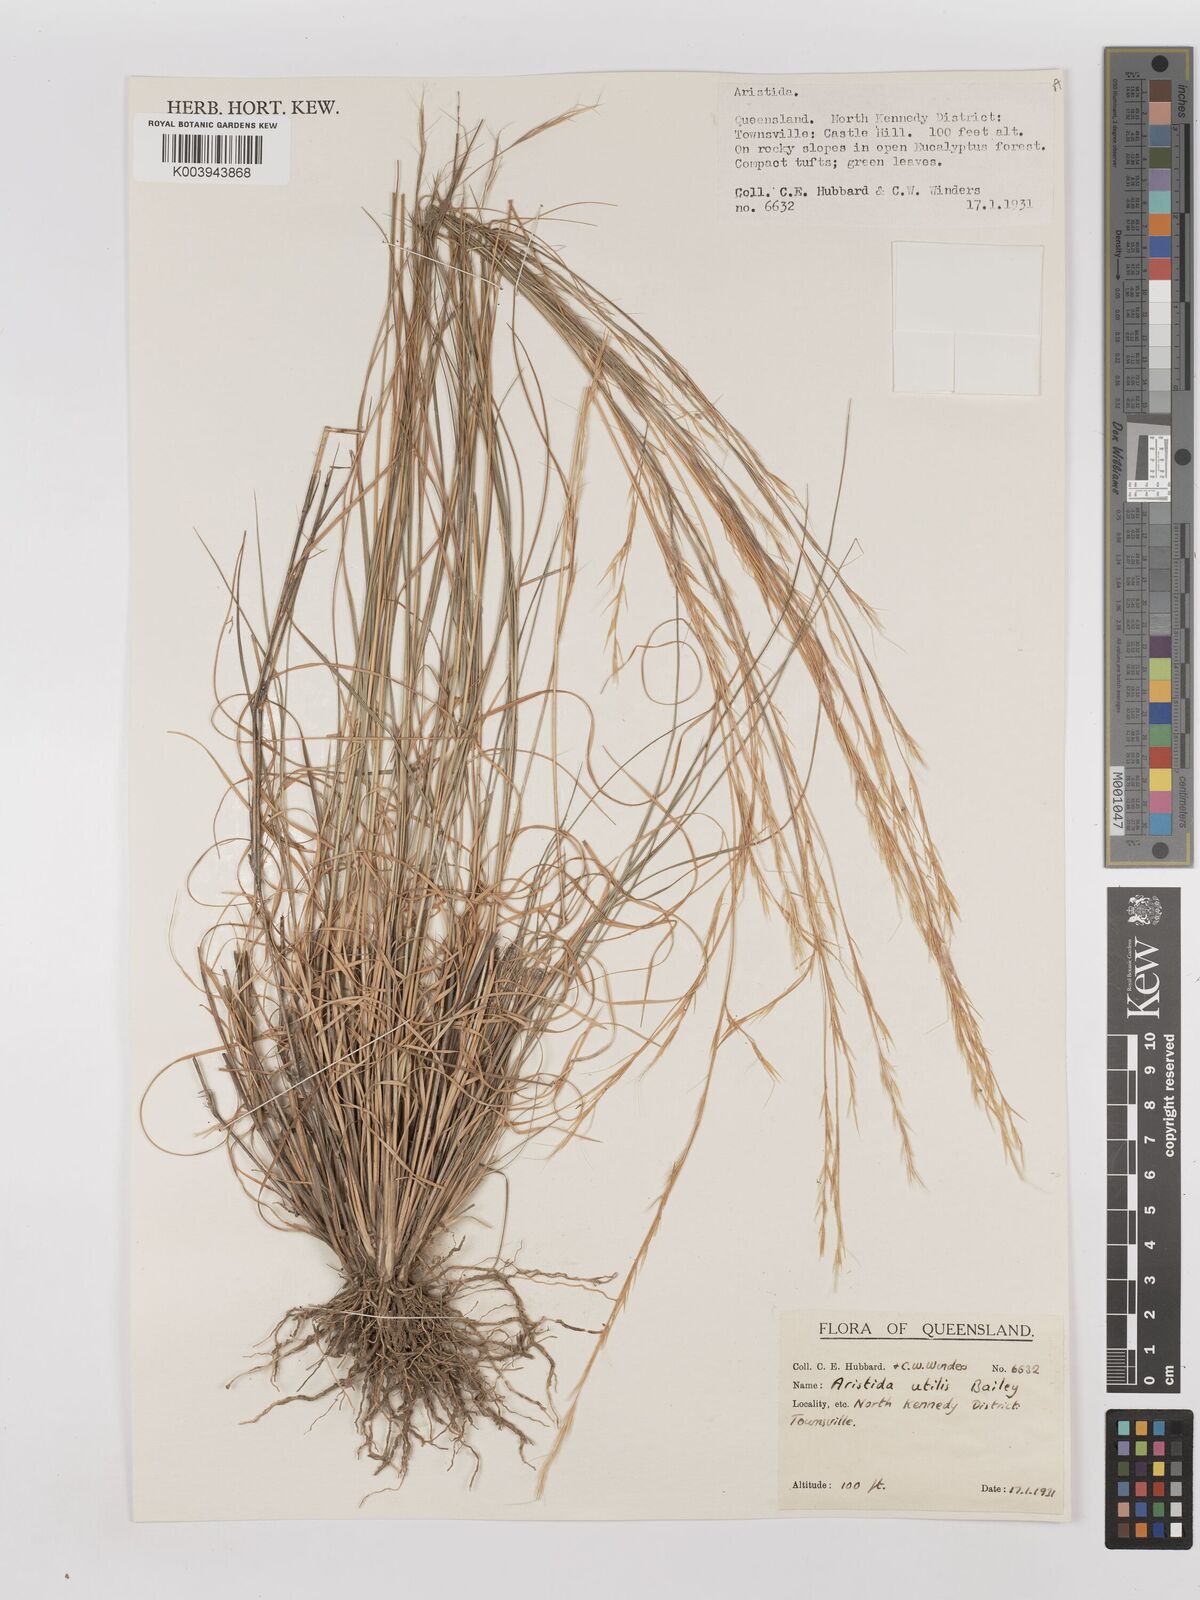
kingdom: Plantae
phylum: Tracheophyta
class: Liliopsida
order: Poales
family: Poaceae
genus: Aristida
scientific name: Aristida utilis
